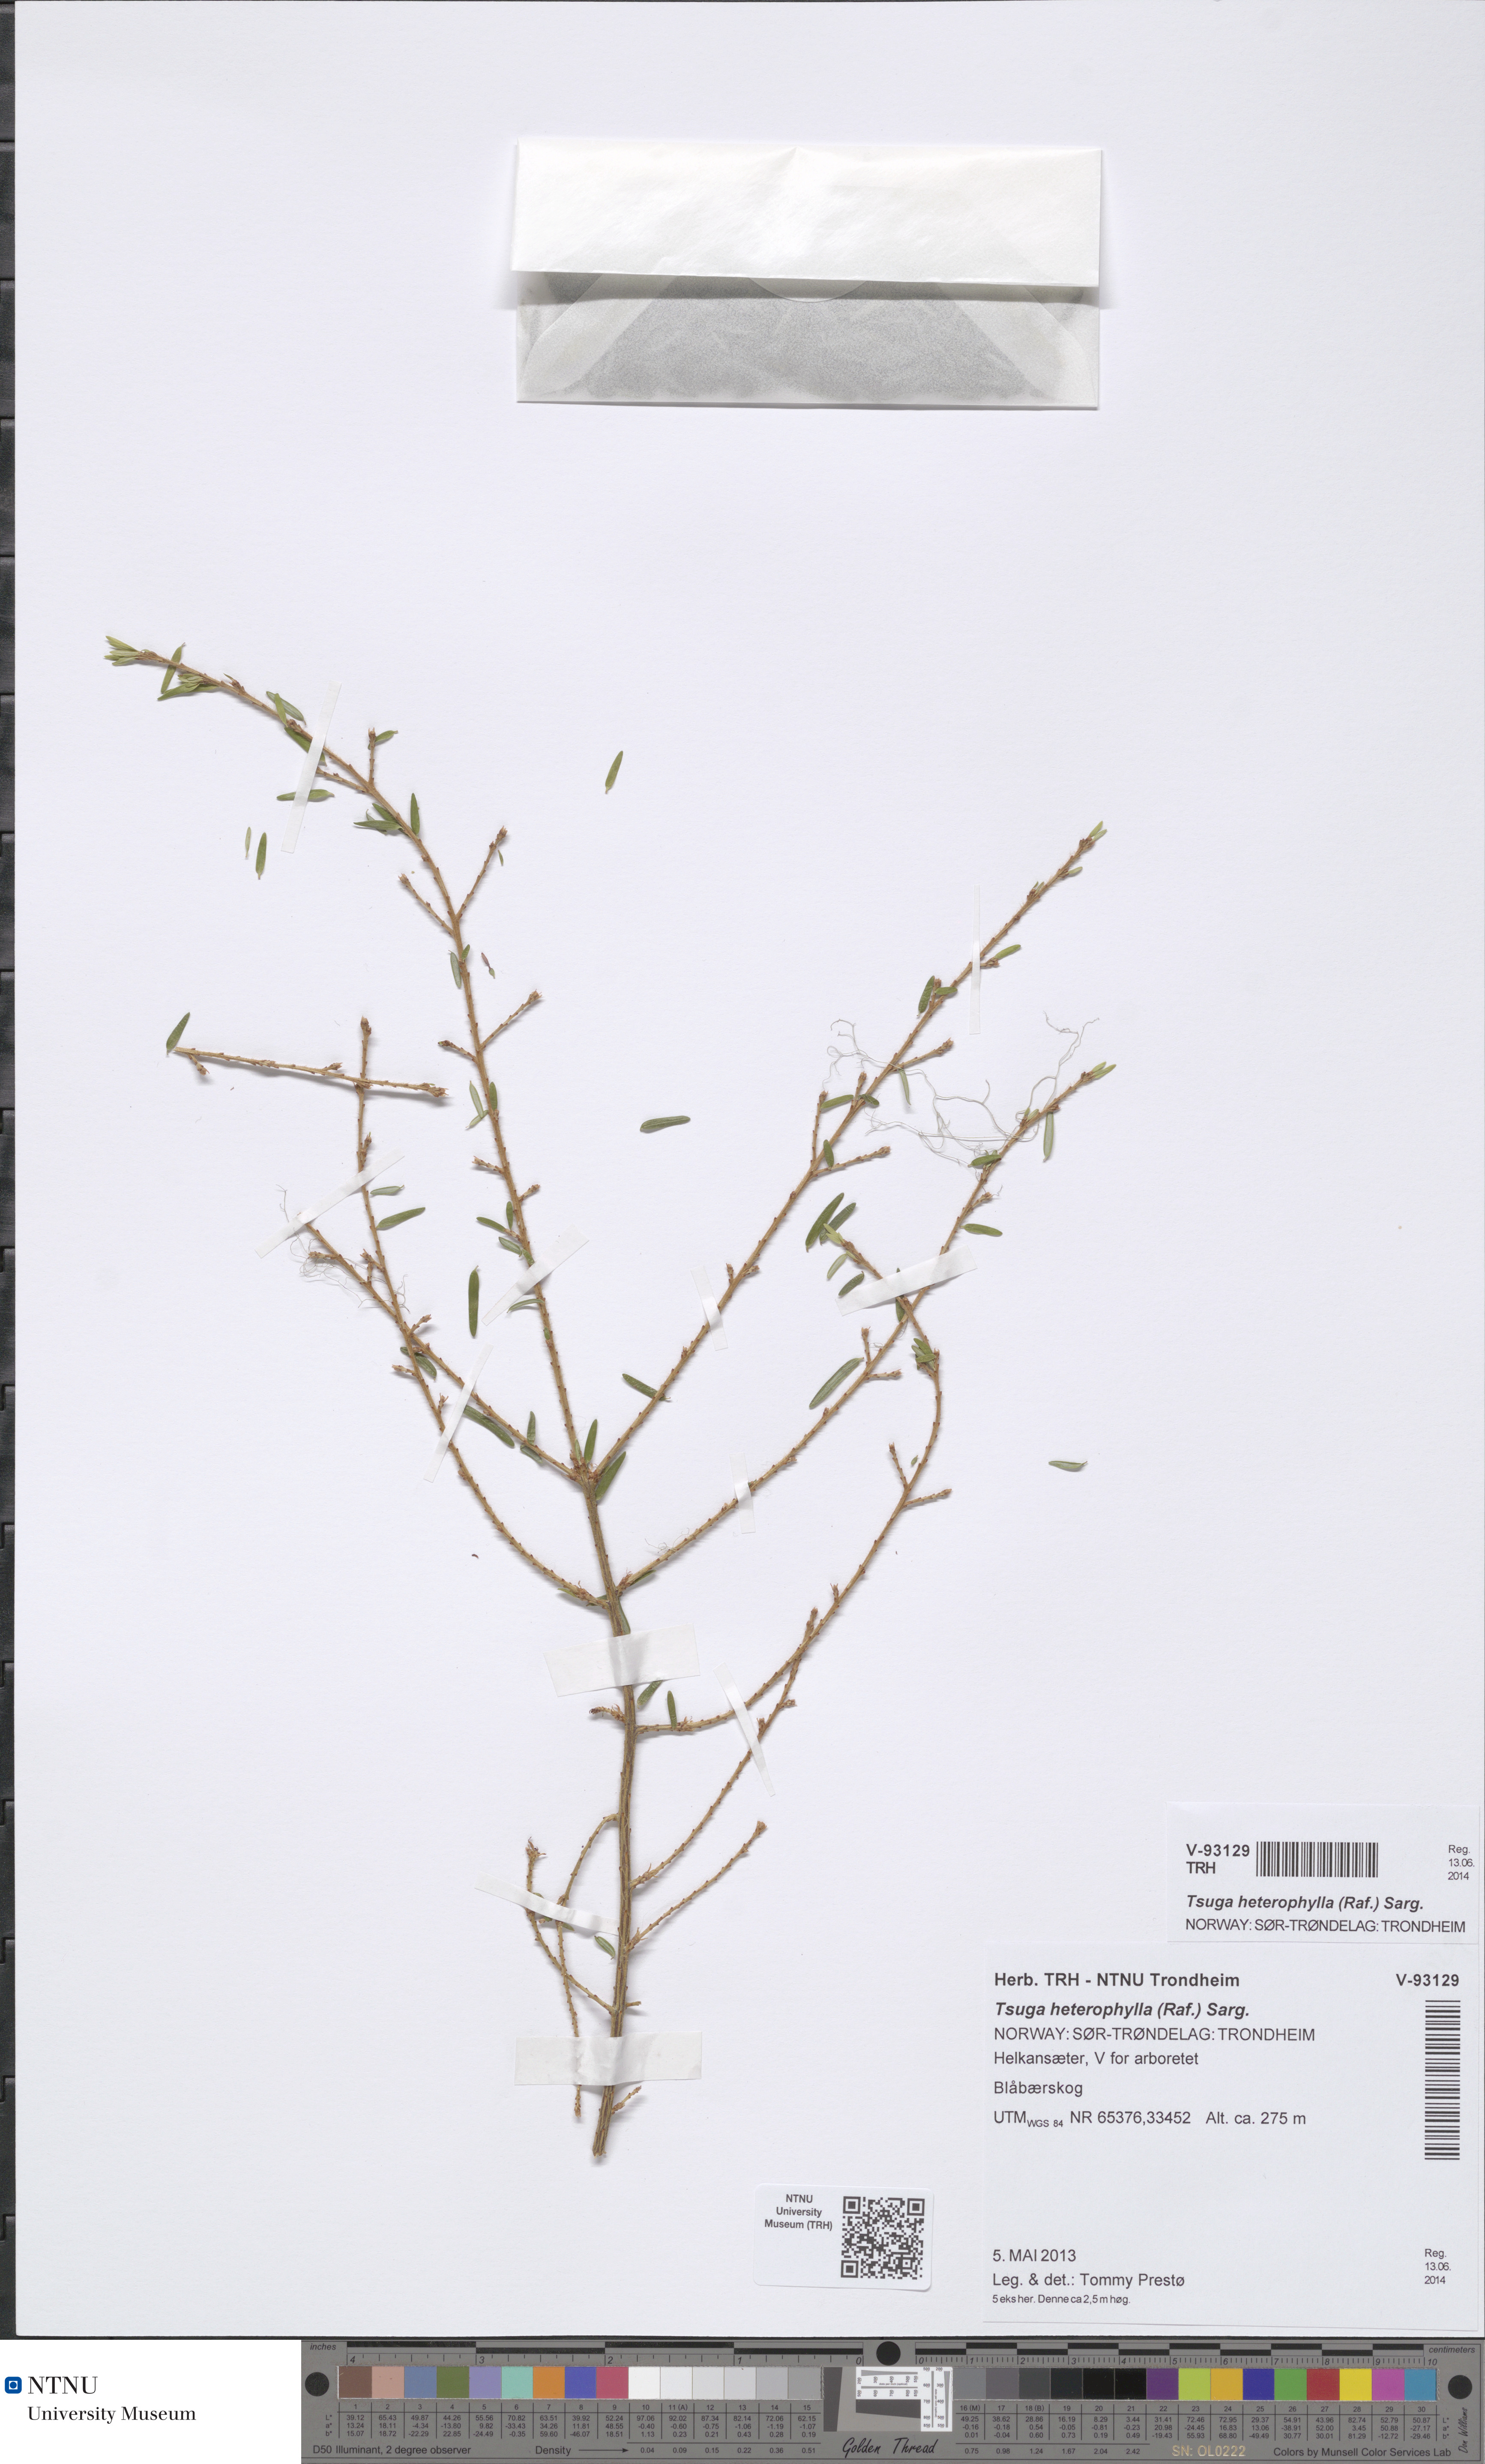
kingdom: Plantae
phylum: Tracheophyta
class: Pinopsida
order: Pinales
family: Pinaceae
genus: Tsuga
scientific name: Tsuga heterophylla
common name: Western hemlock
